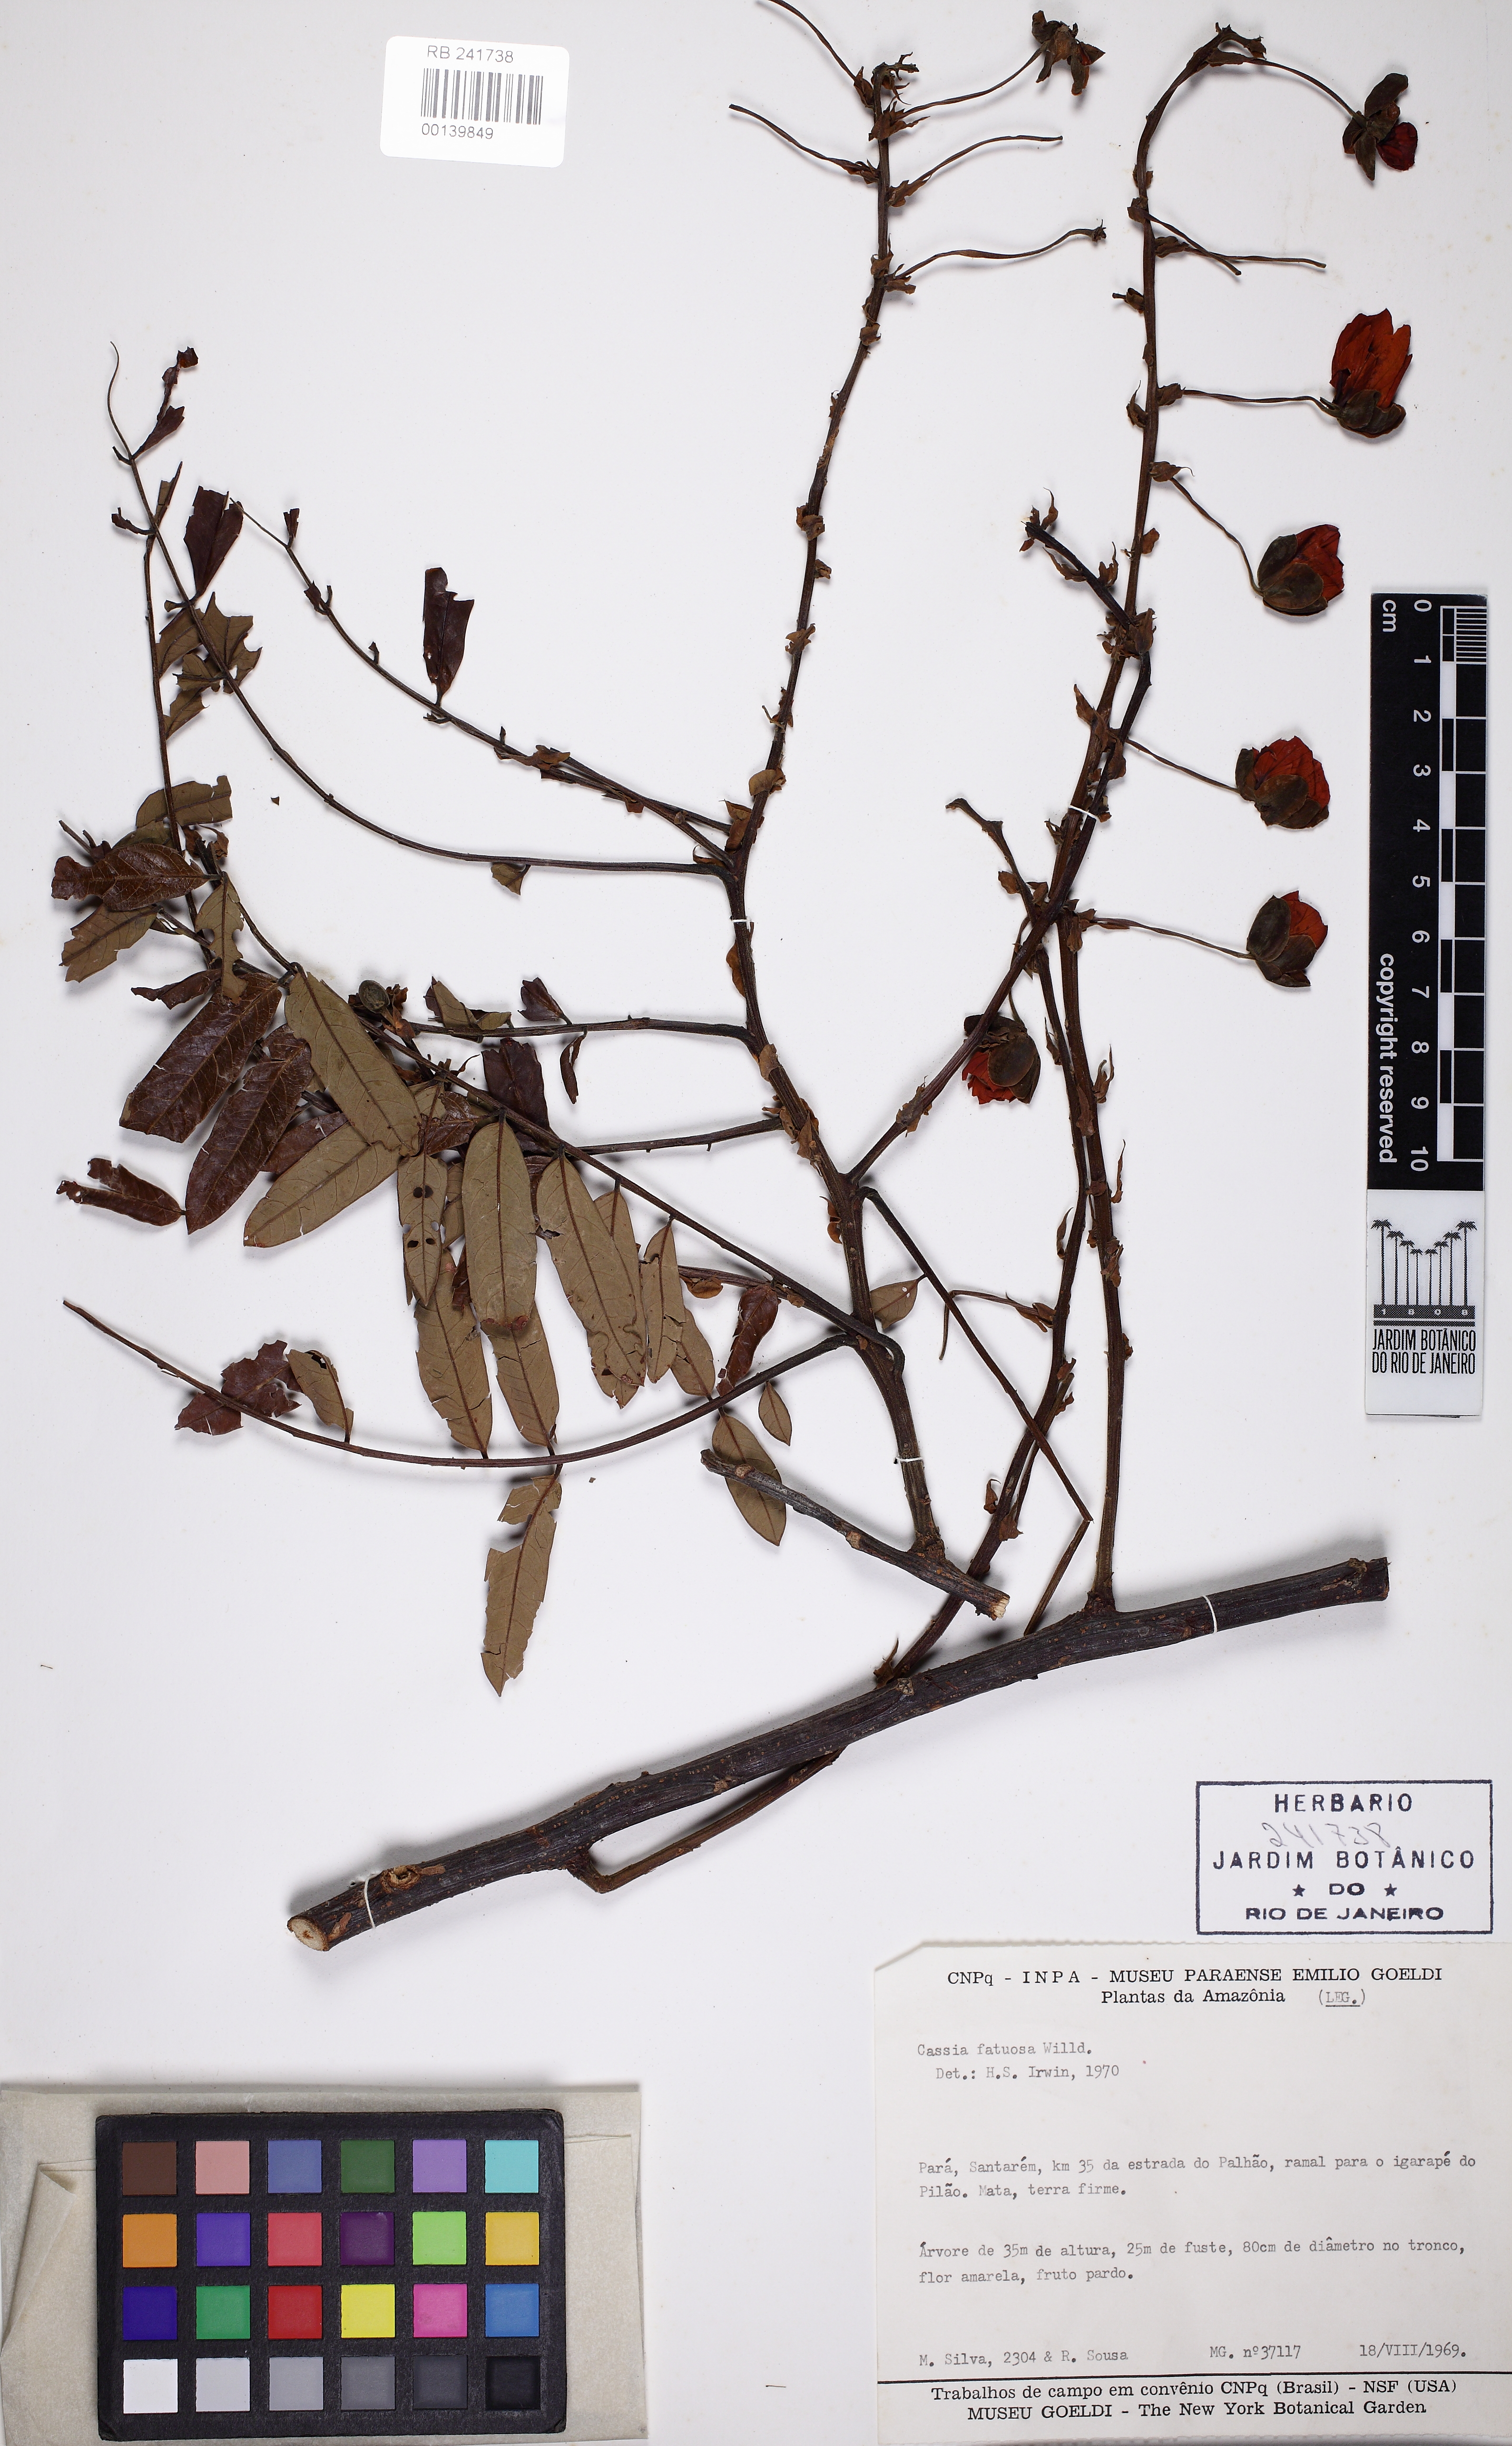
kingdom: Plantae
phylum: Tracheophyta
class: Magnoliopsida
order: Fabales
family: Fabaceae
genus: Cassia
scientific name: Cassia fastuosa
